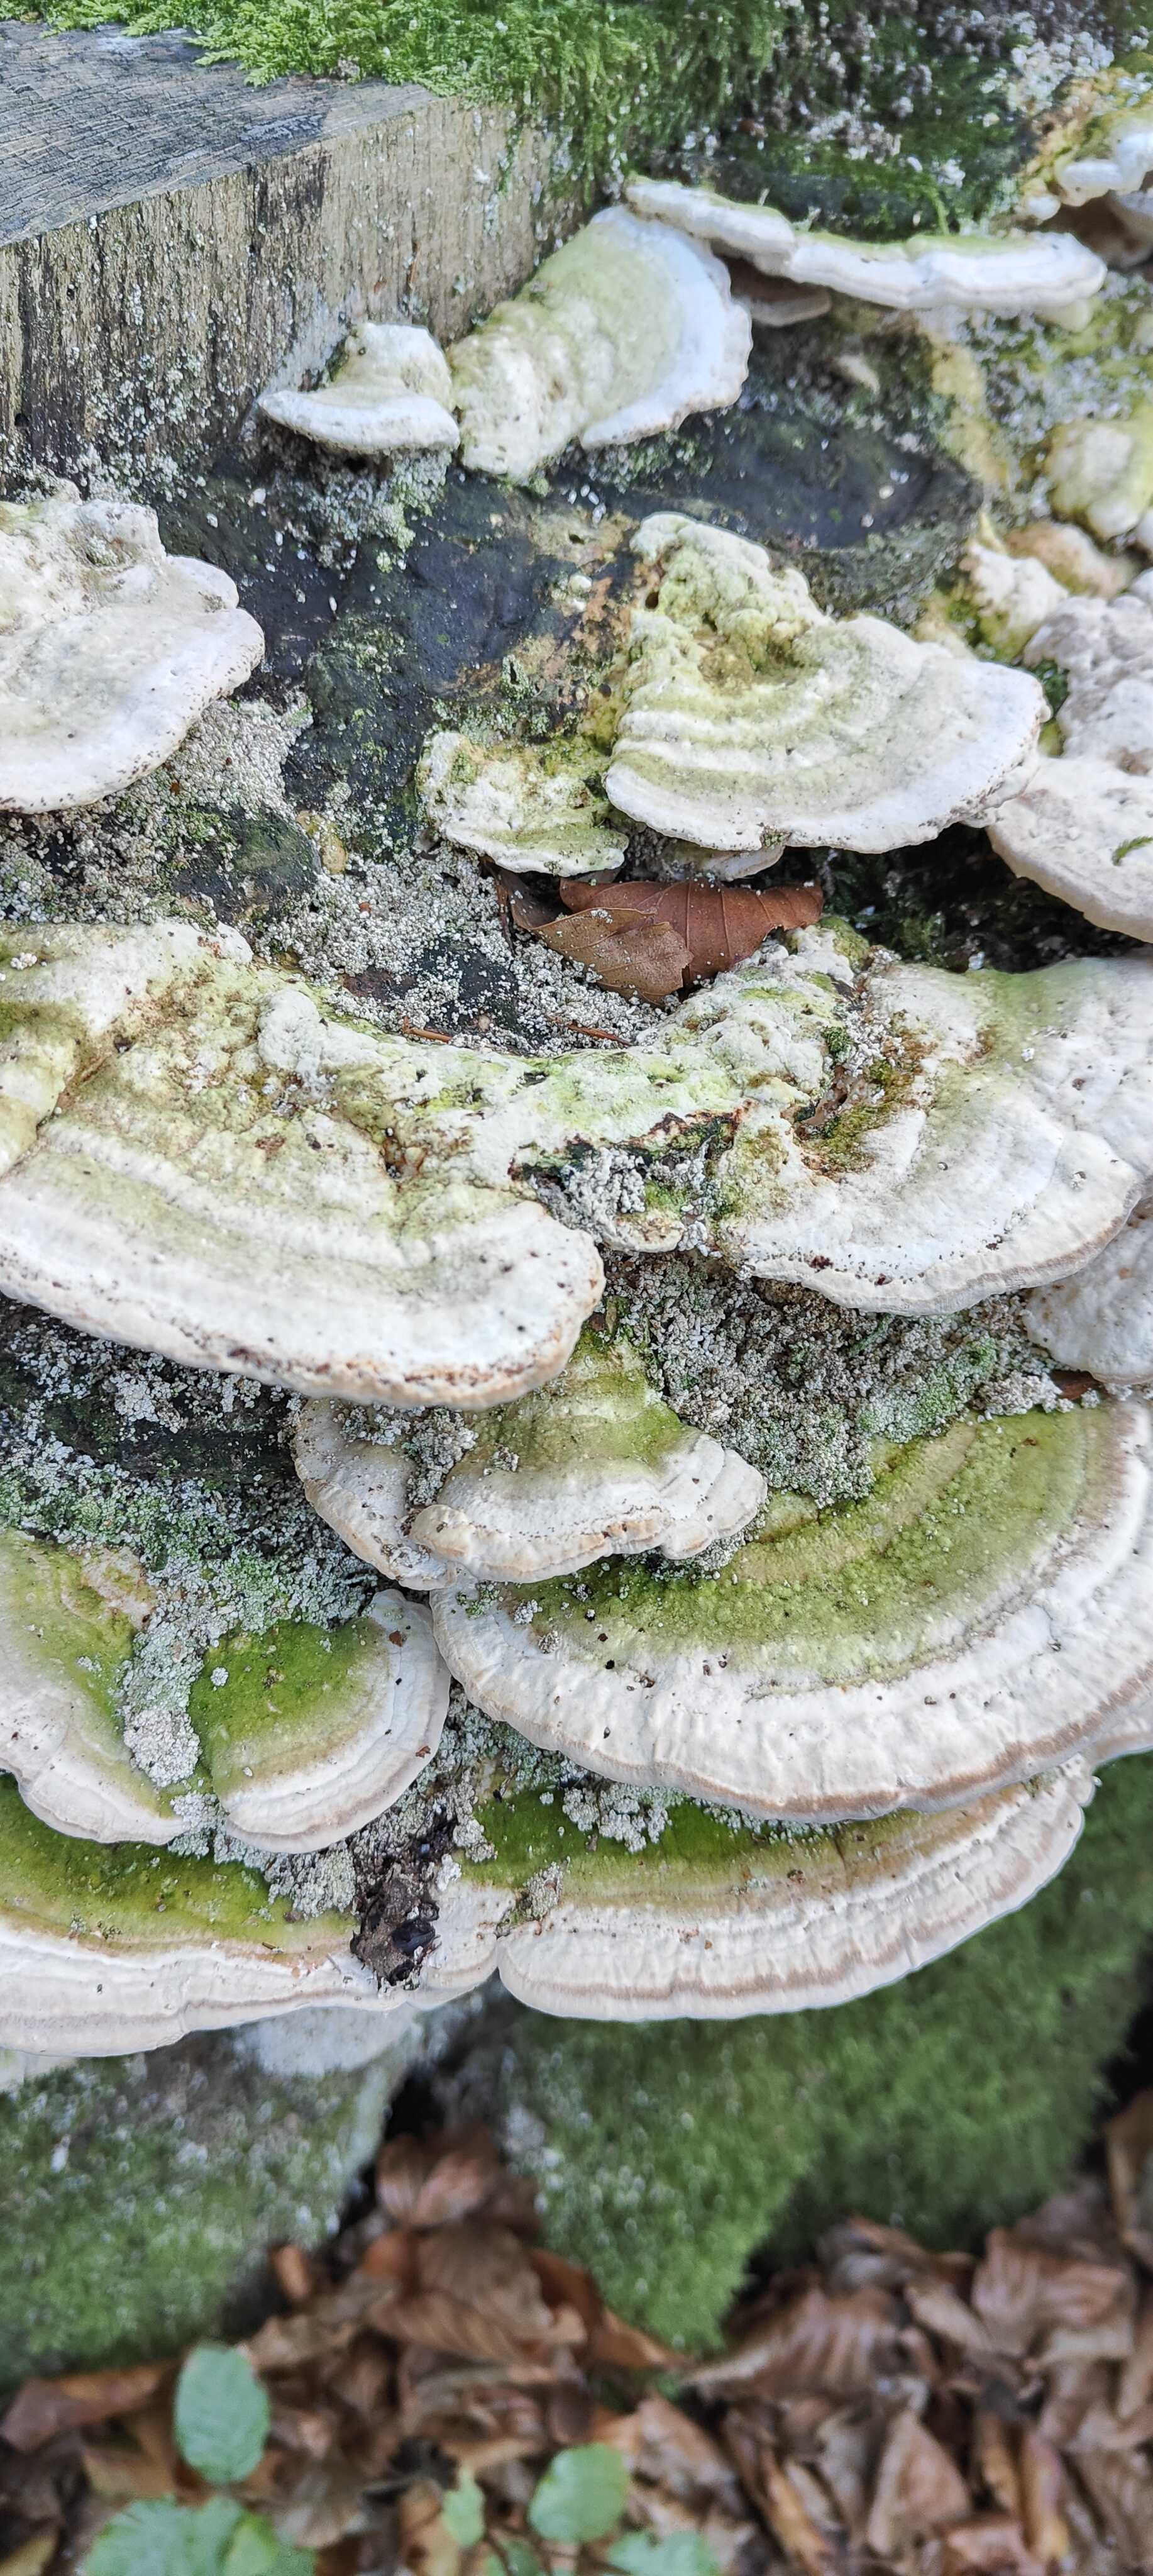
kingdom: Fungi
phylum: Basidiomycota
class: Agaricomycetes
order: Polyporales
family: Polyporaceae
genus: Trametes
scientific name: Trametes gibbosa
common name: puklet læderporesvamp
